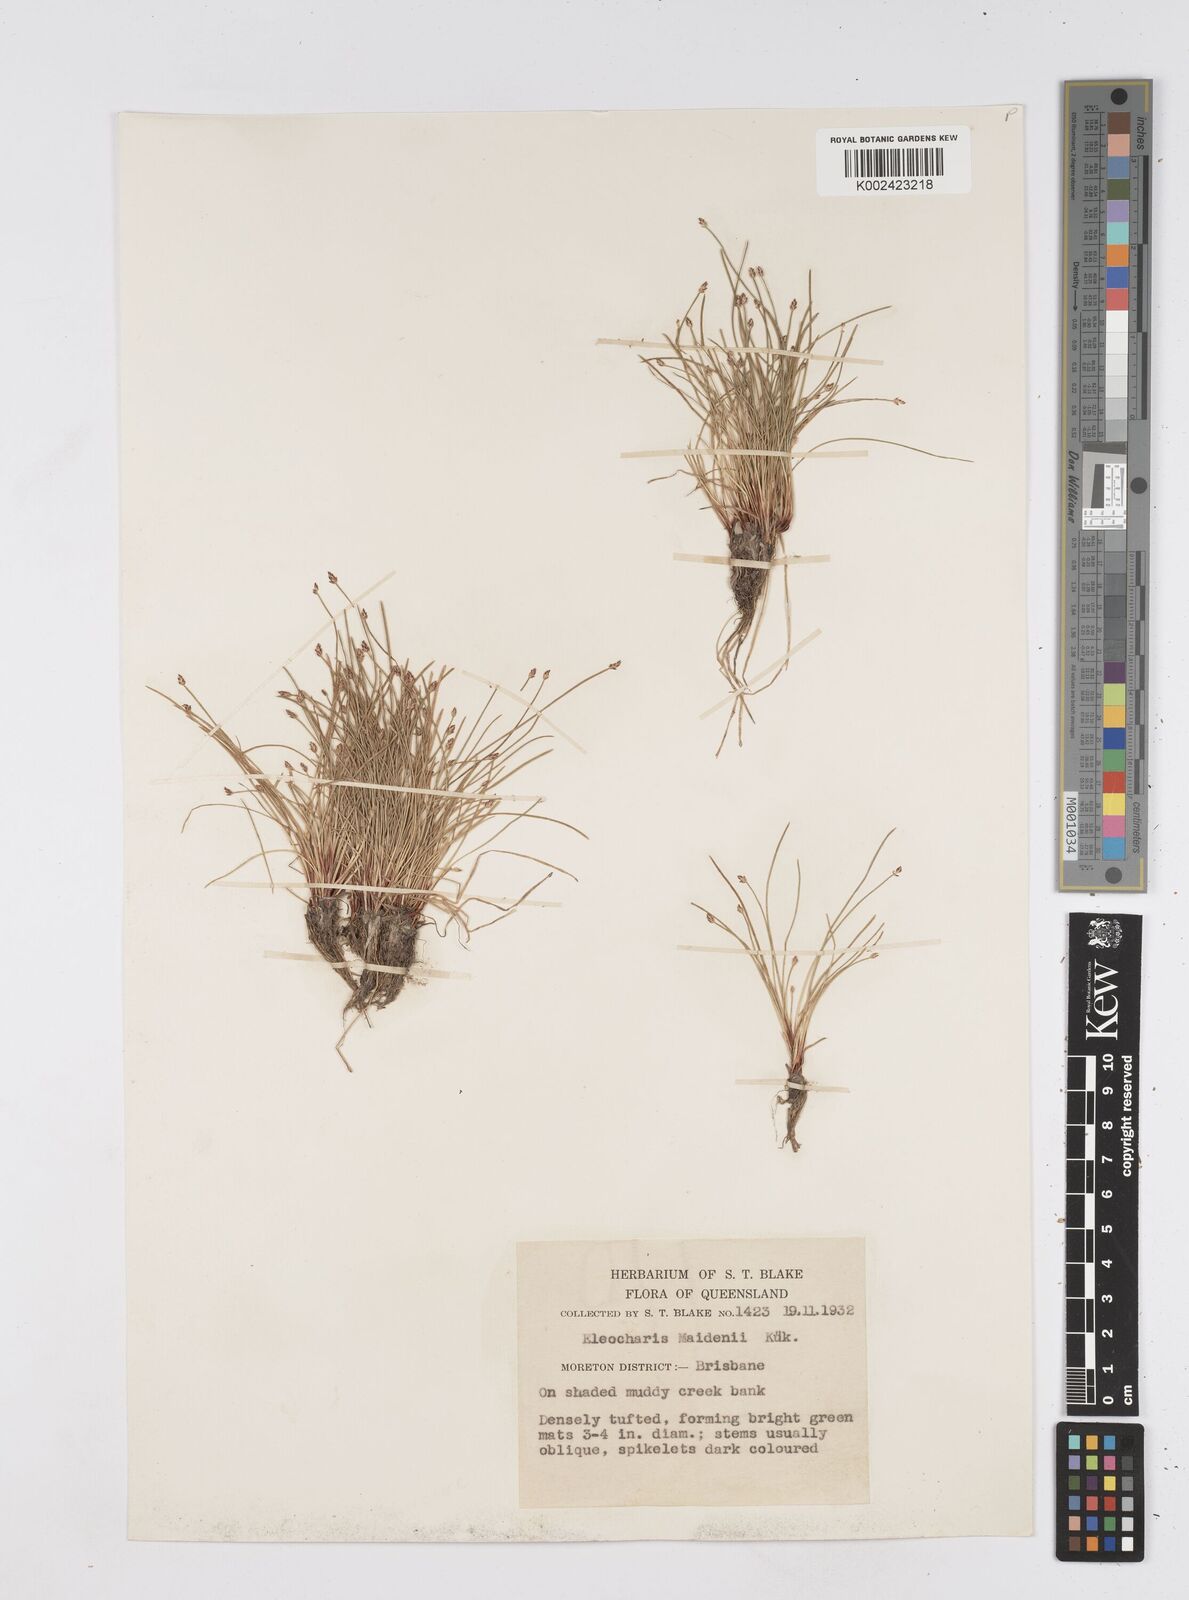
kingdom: Plantae
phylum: Tracheophyta
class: Liliopsida
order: Poales
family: Cyperaceae
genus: Eleocharis
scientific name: Eleocharis minuta
